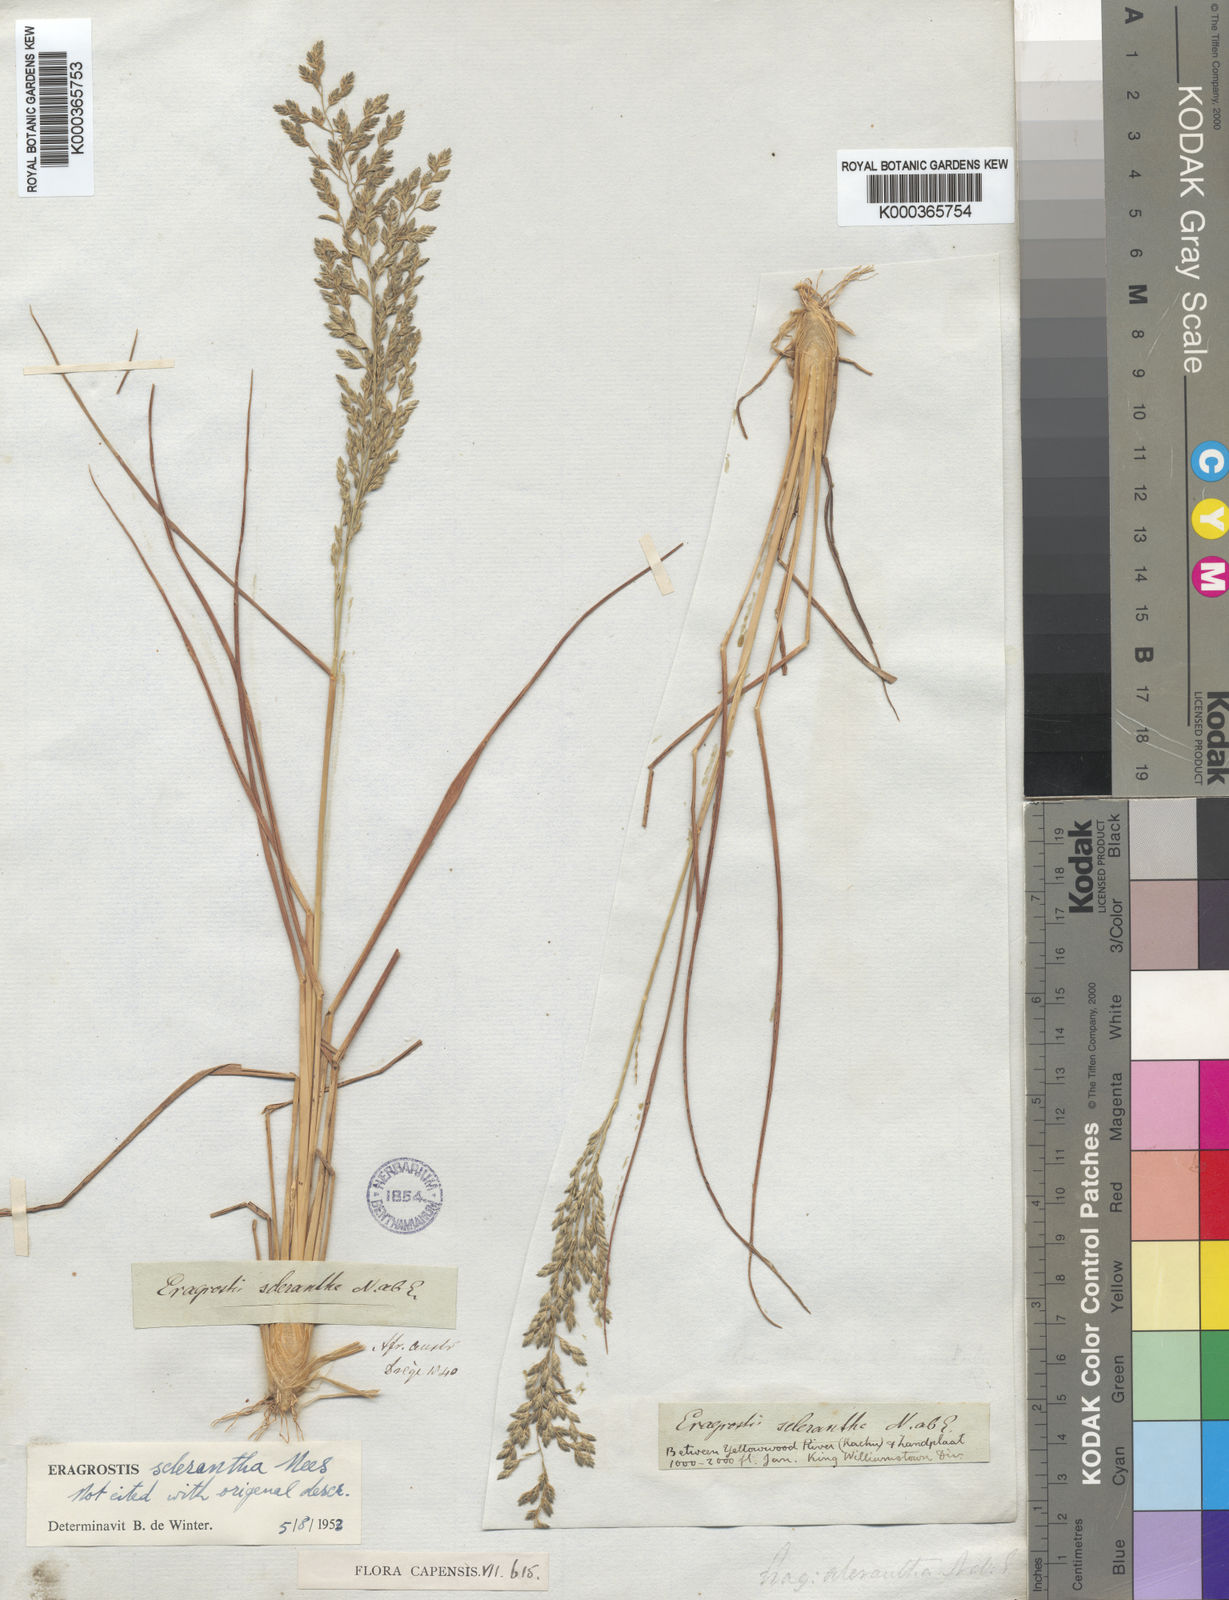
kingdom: Plantae
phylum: Tracheophyta
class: Liliopsida
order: Poales
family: Poaceae
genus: Eragrostis
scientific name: Eragrostis sclerantha
